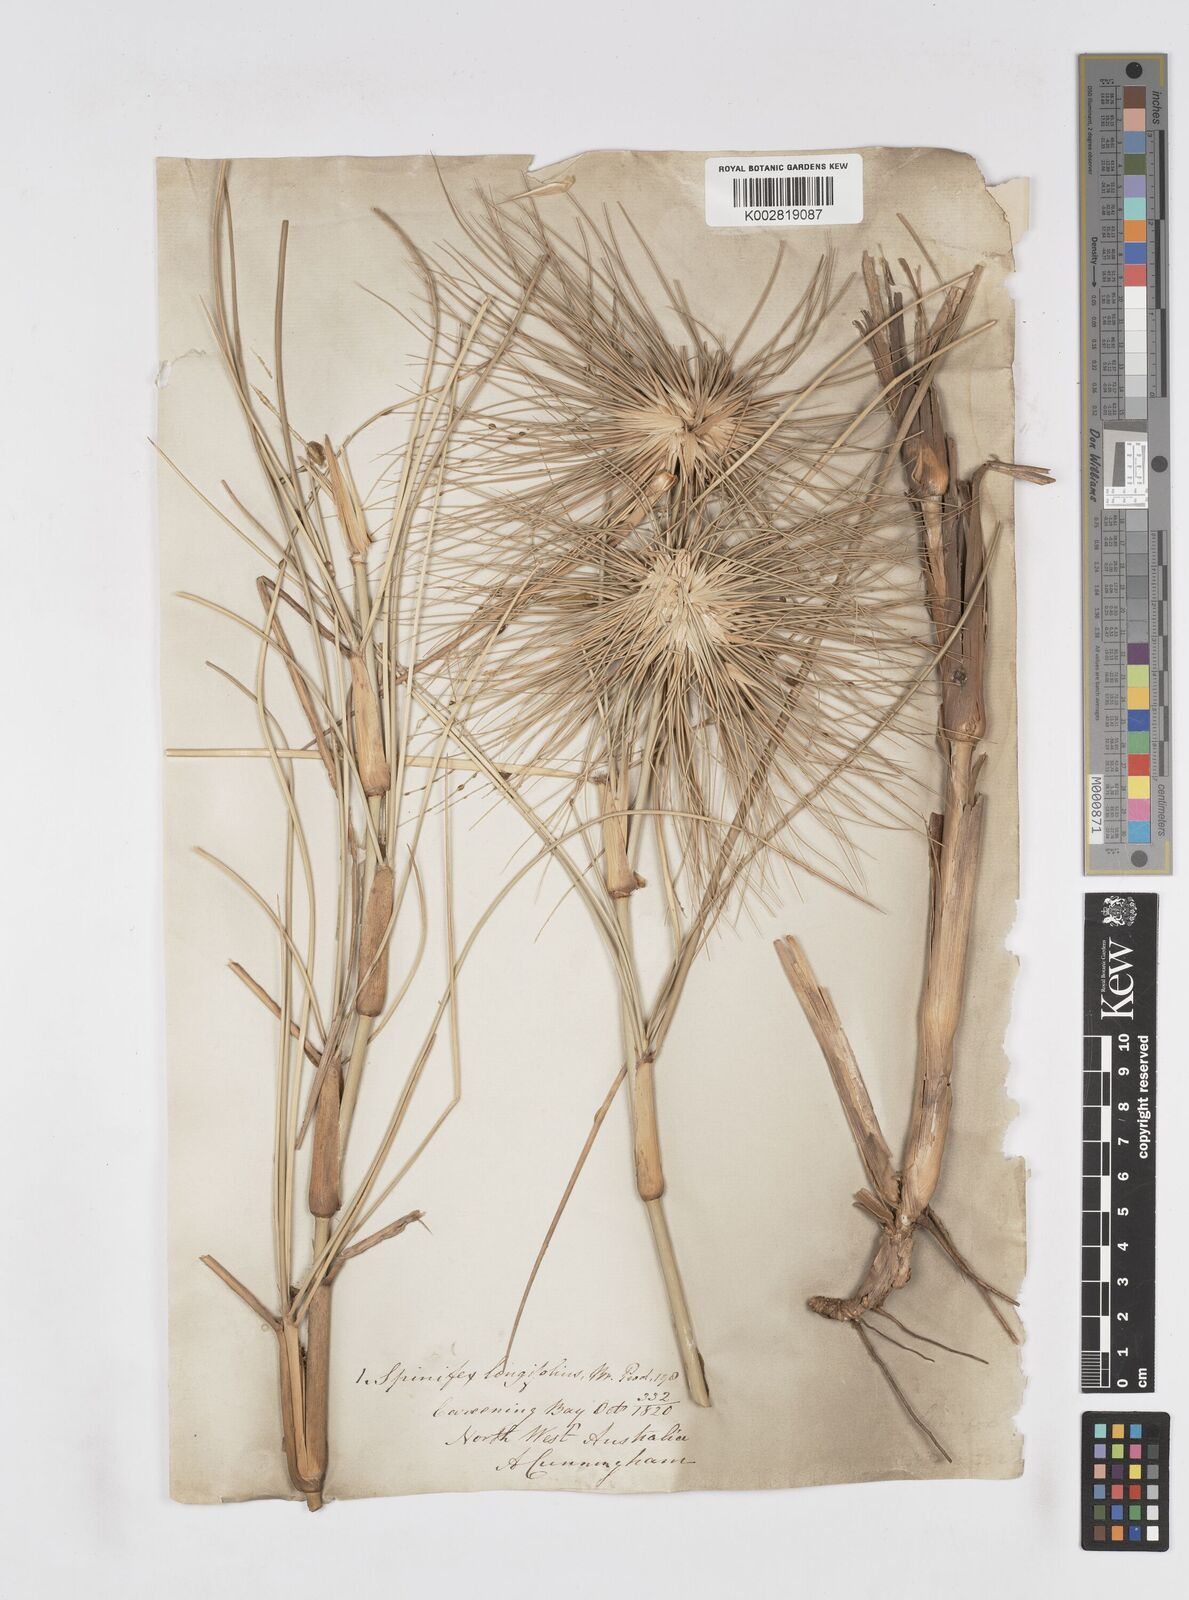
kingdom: Plantae
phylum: Tracheophyta
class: Liliopsida
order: Poales
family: Poaceae
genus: Spinifex
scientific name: Spinifex longifolius
